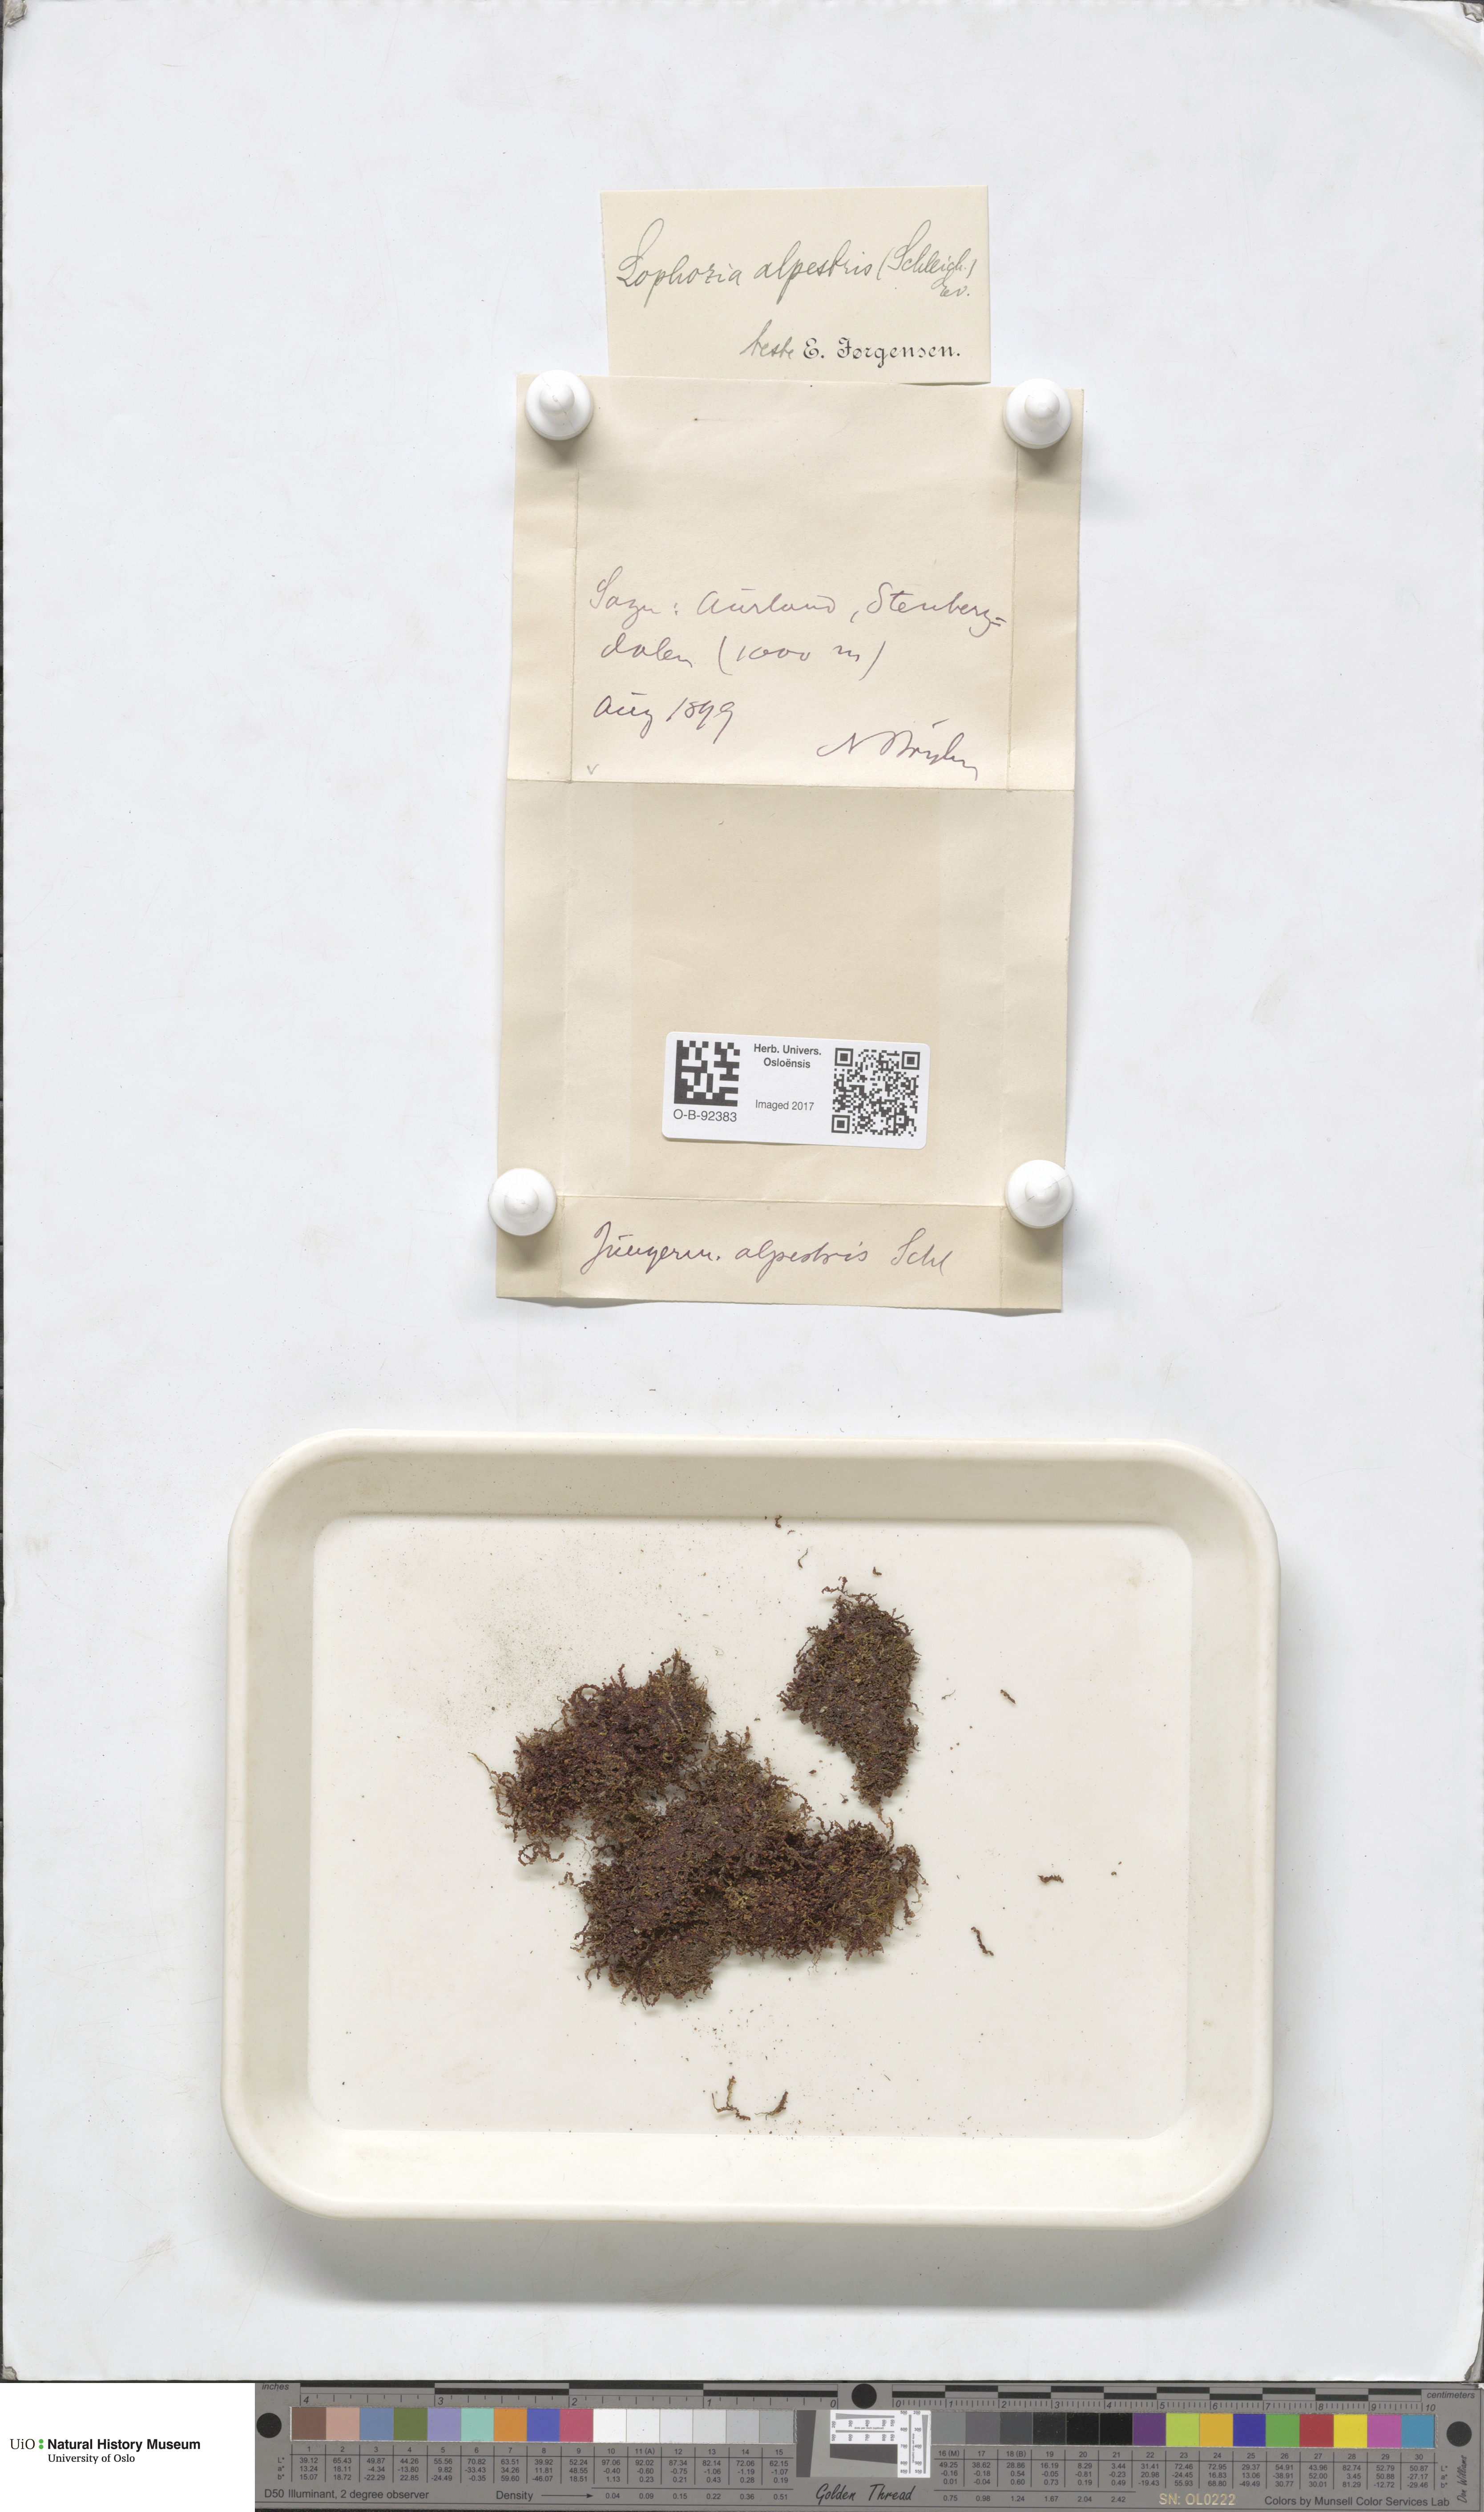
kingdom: Plantae
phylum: Marchantiophyta
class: Jungermanniopsida
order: Jungermanniales
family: Anastrophyllaceae
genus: Barbilophozia
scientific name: Barbilophozia sudetica
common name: Hill notchwort
